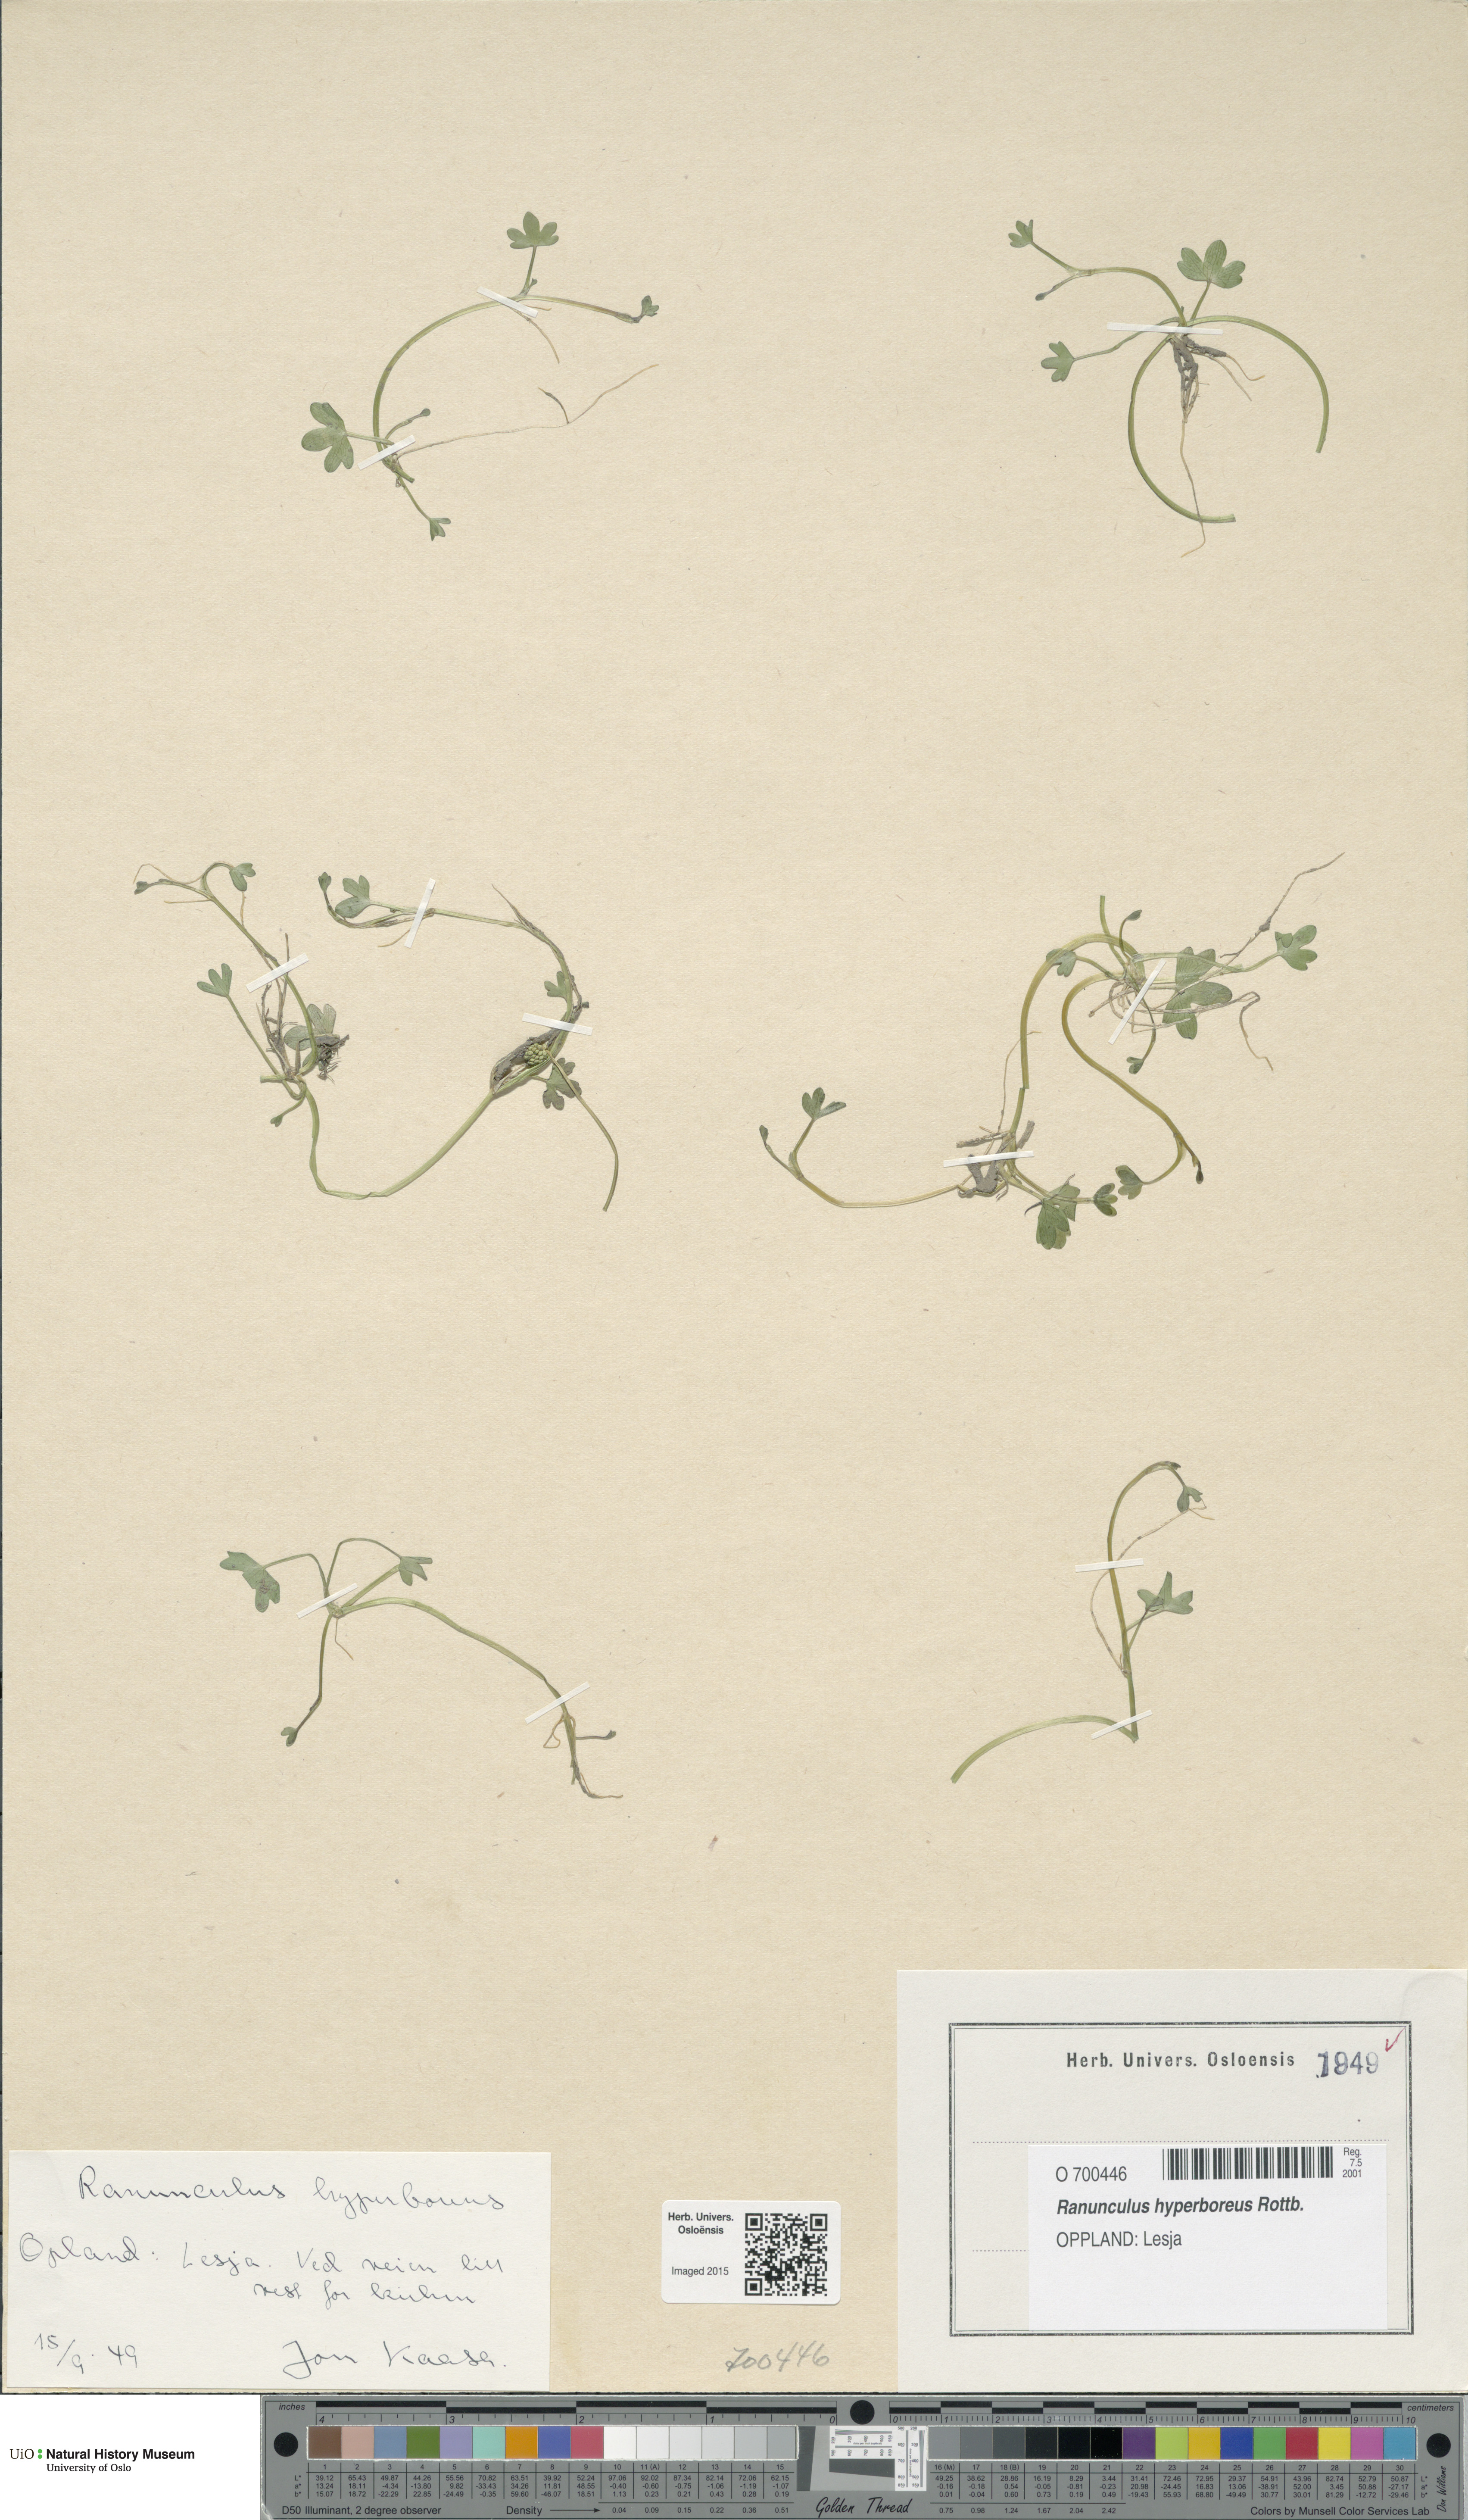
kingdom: Plantae
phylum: Tracheophyta
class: Magnoliopsida
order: Ranunculales
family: Ranunculaceae
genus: Ranunculus
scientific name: Ranunculus hyperboreus
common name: Arctic buttercup
